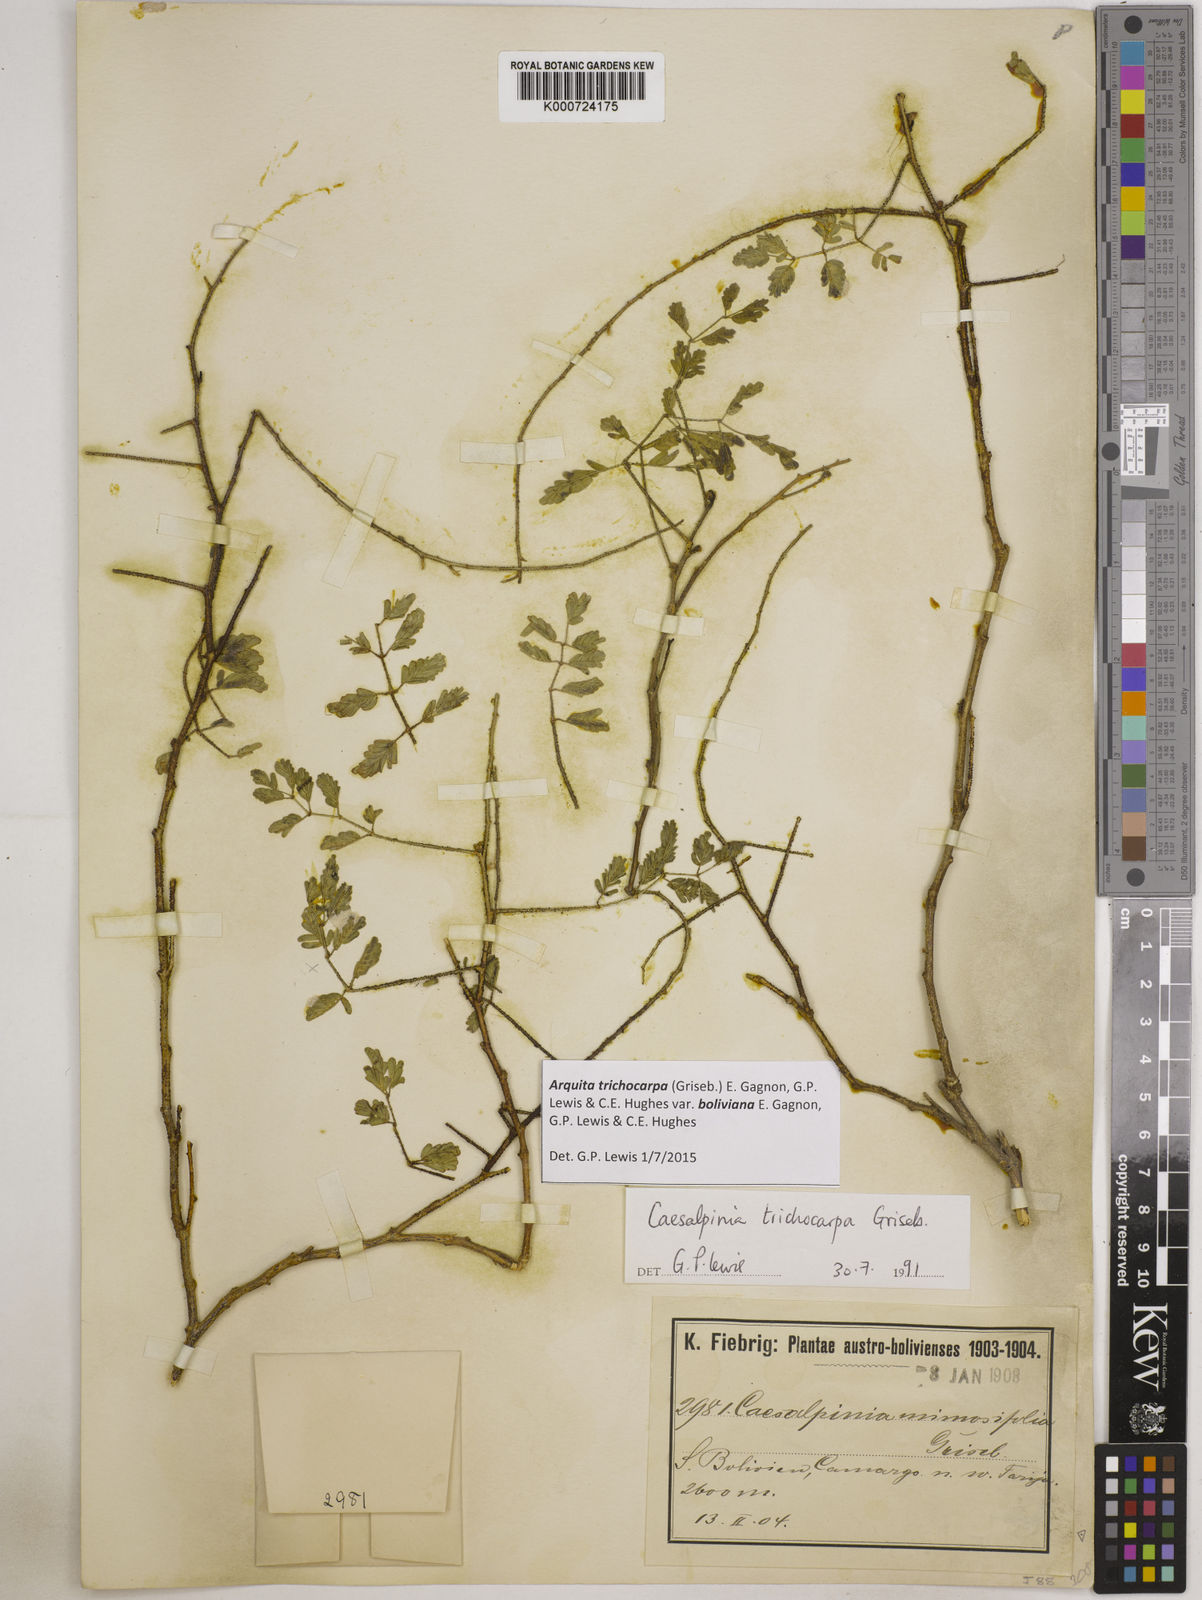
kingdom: Plantae
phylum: Tracheophyta
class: Magnoliopsida
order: Fabales
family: Fabaceae
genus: Arquita
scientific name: Arquita trichocarpa
